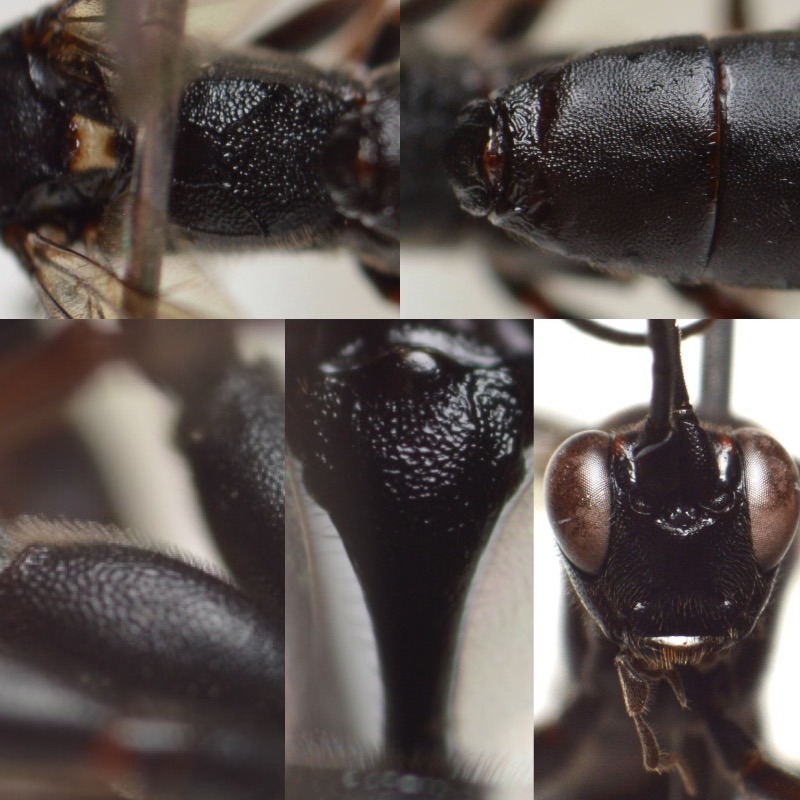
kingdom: Animalia
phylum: Arthropoda
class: Insecta
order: Hymenoptera
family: Ichneumonidae
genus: Aoplus
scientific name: Aoplus personatus
